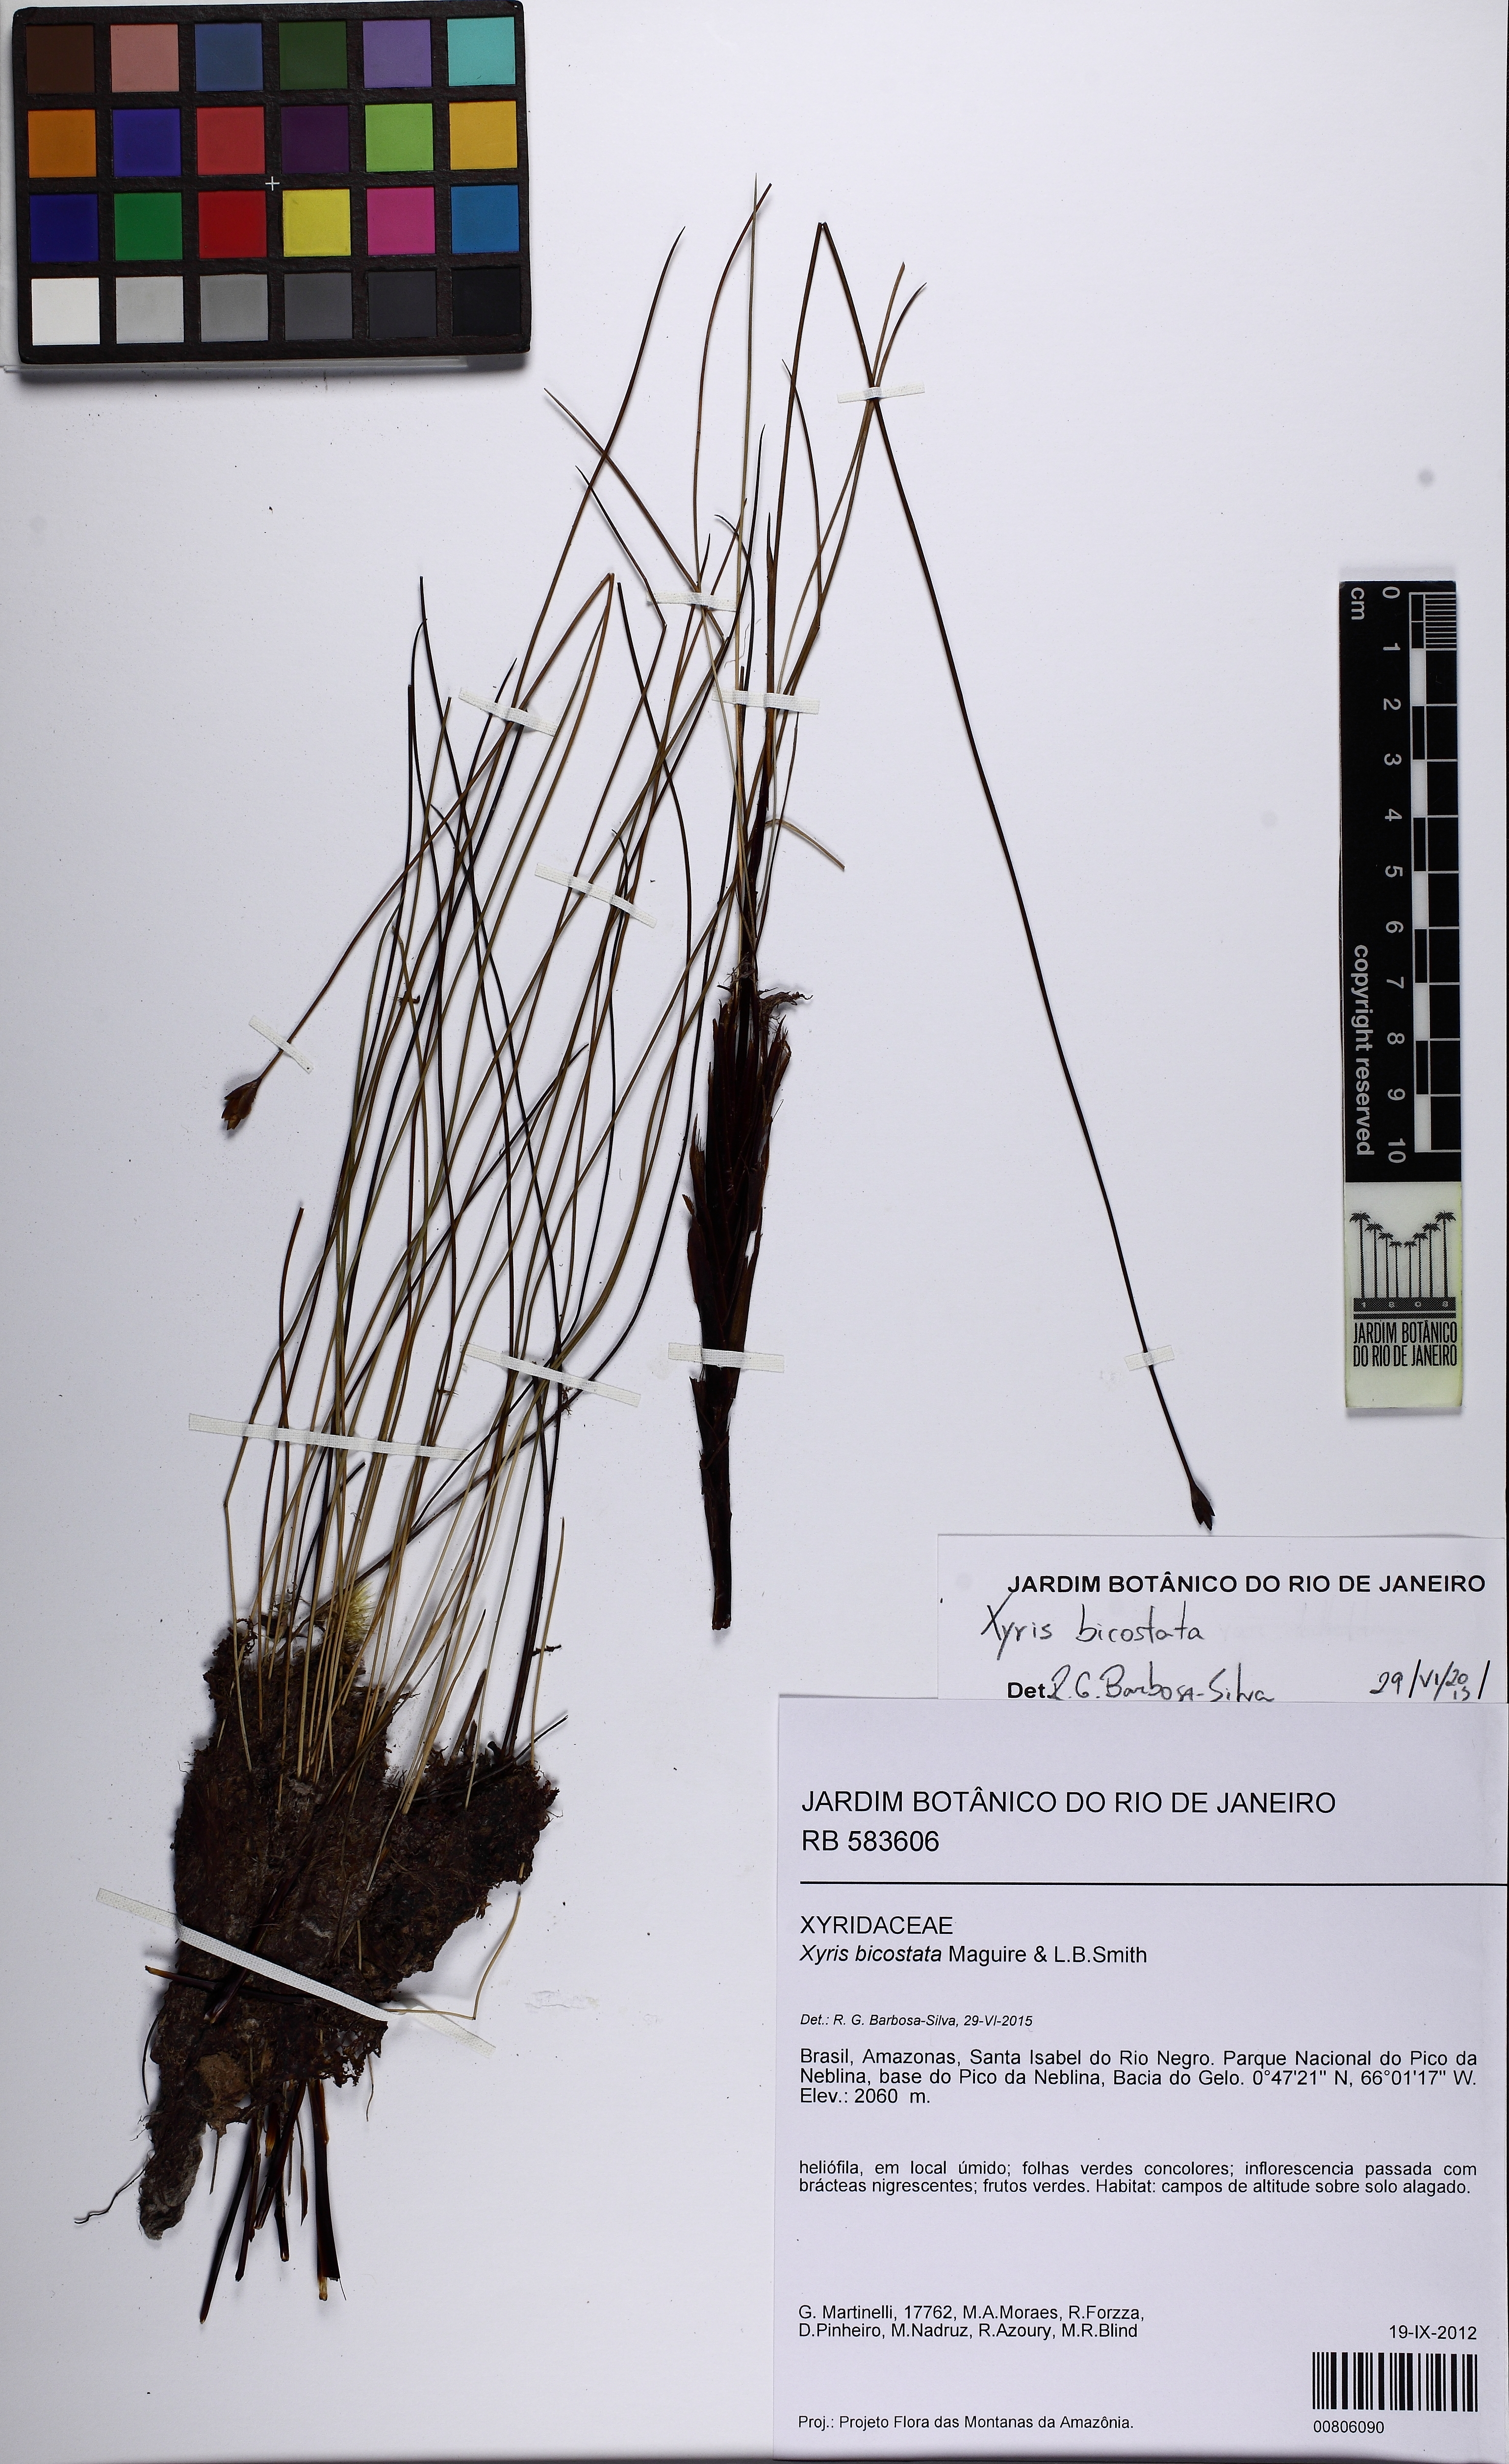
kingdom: Plantae
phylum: Tracheophyta
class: Liliopsida
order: Poales
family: Xyridaceae
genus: Xyris
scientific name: Xyris bicostata
